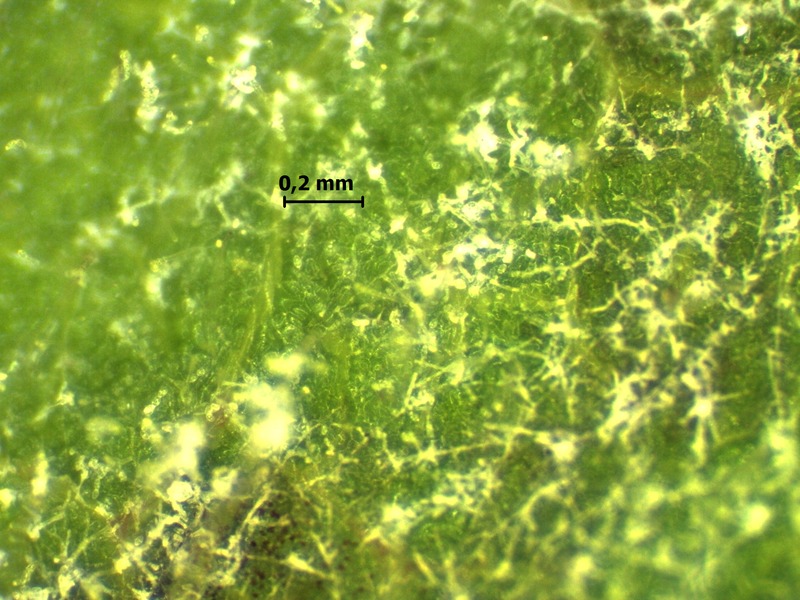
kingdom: Fungi
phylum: Ascomycota
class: Leotiomycetes
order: Helotiales
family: Erysiphaceae
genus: Podosphaera
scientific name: Podosphaera aphanis
